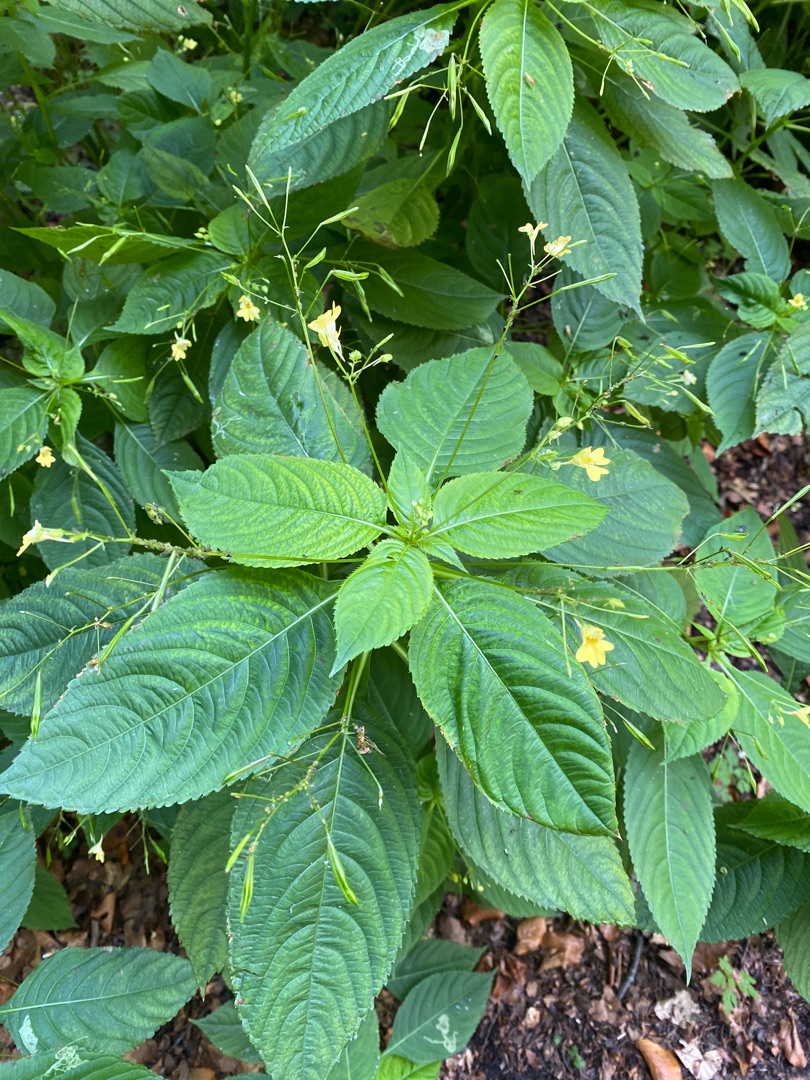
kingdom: Plantae
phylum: Tracheophyta
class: Magnoliopsida
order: Ericales
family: Balsaminaceae
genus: Impatiens
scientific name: Impatiens parviflora
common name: Småblomstret balsamin
